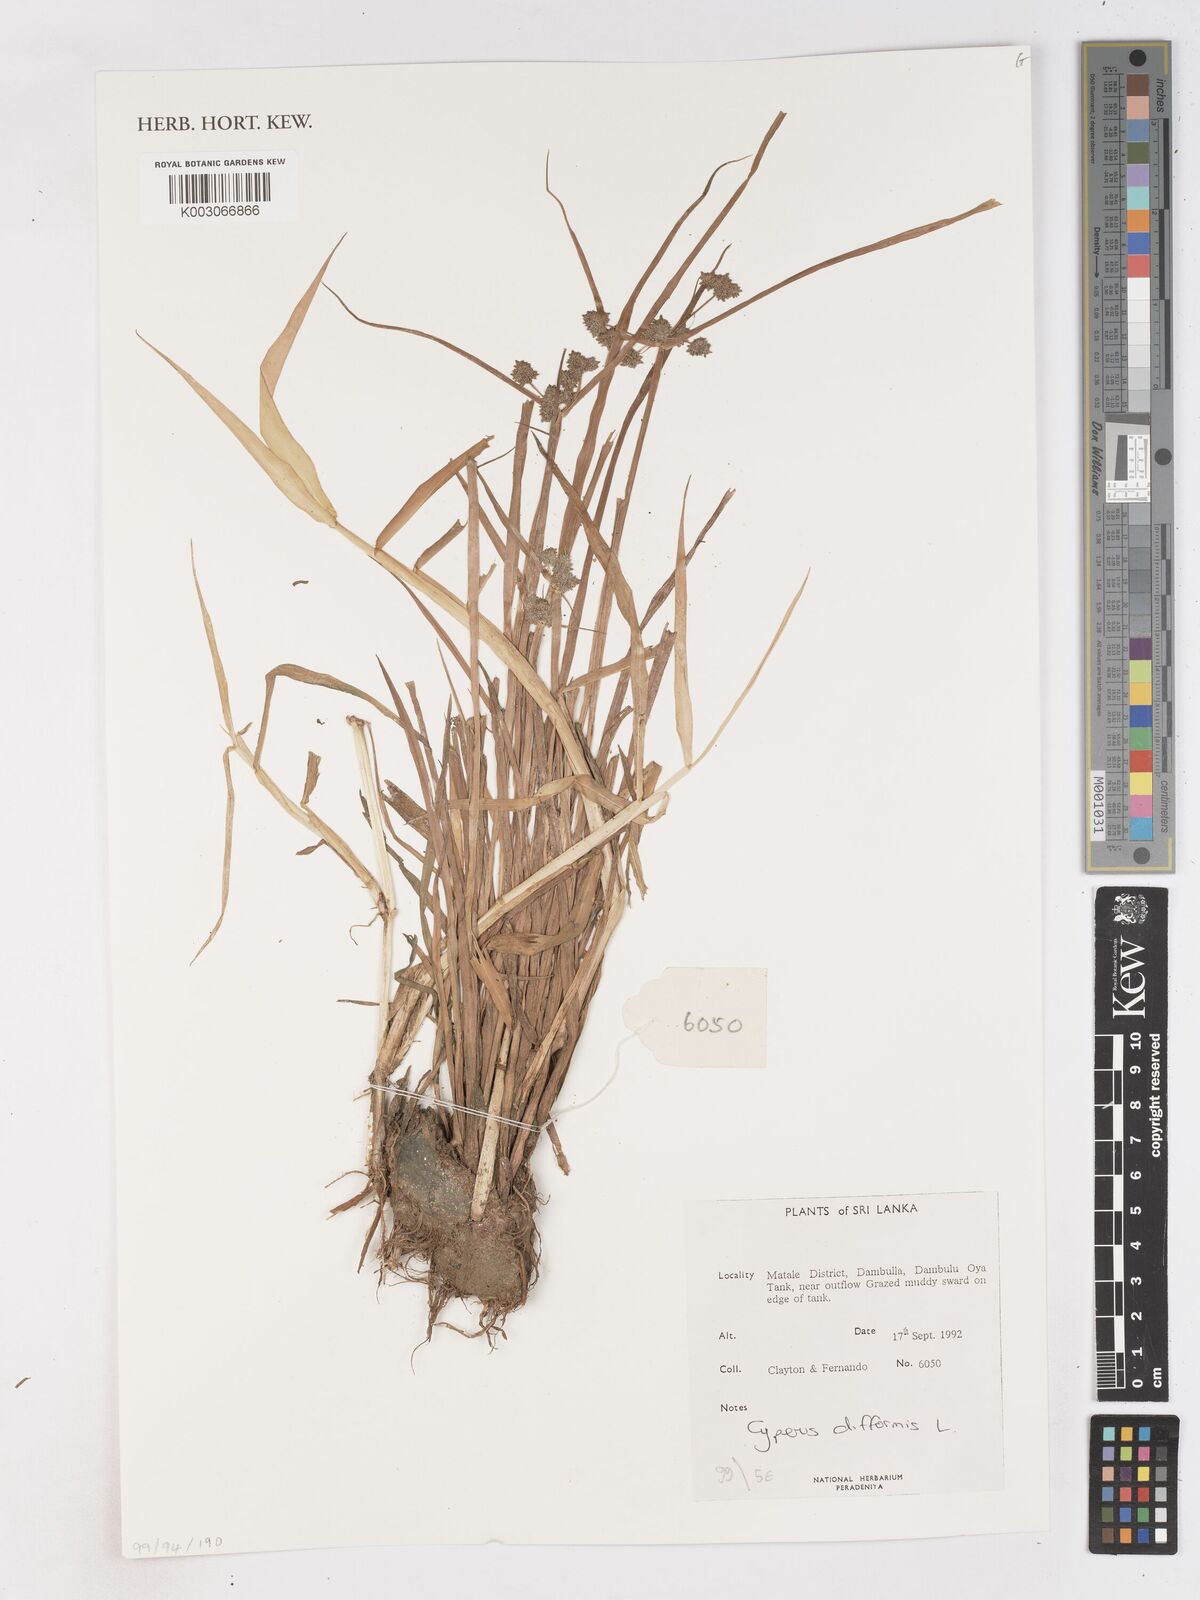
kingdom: Plantae
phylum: Tracheophyta
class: Liliopsida
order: Poales
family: Cyperaceae
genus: Cyperus
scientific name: Cyperus difformis
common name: Variable flatsedge
